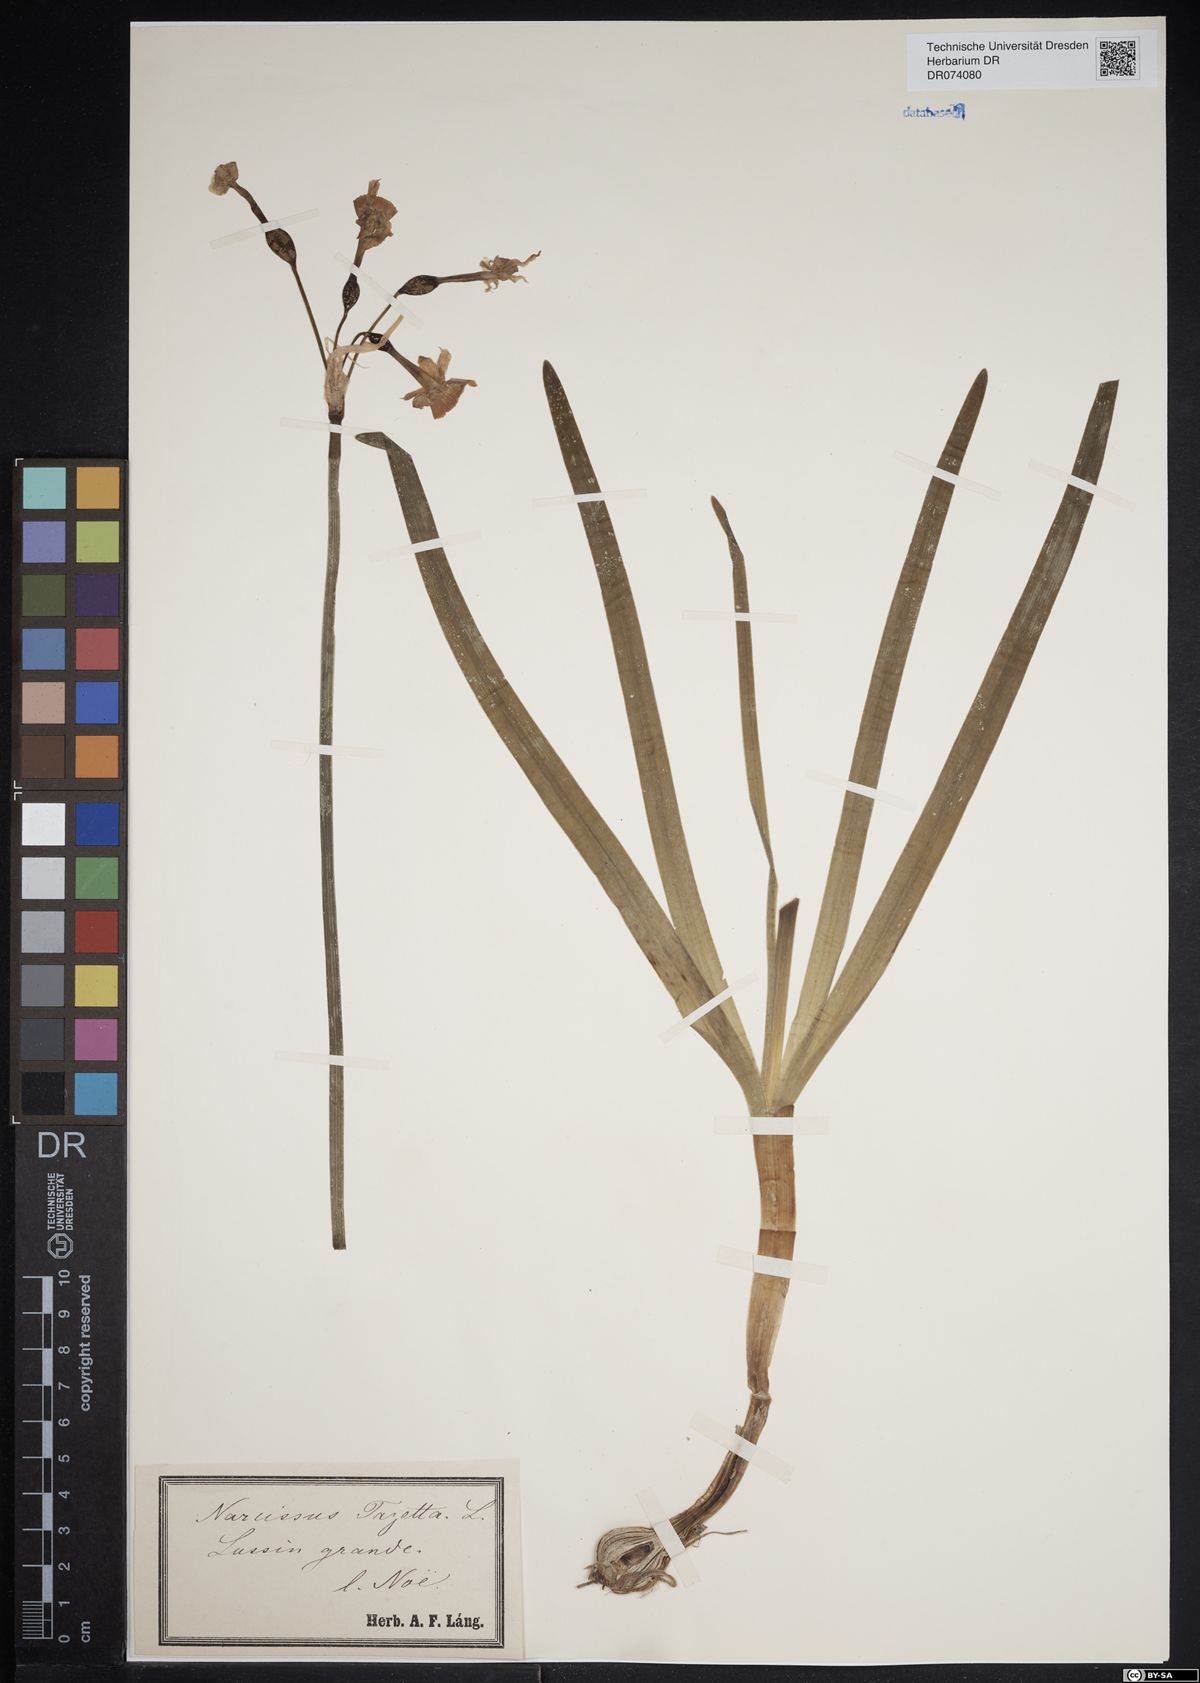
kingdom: Plantae
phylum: Tracheophyta
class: Liliopsida
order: Asparagales
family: Amaryllidaceae
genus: Narcissus
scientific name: Narcissus tazetta
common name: Bunch-flowered daffodil
